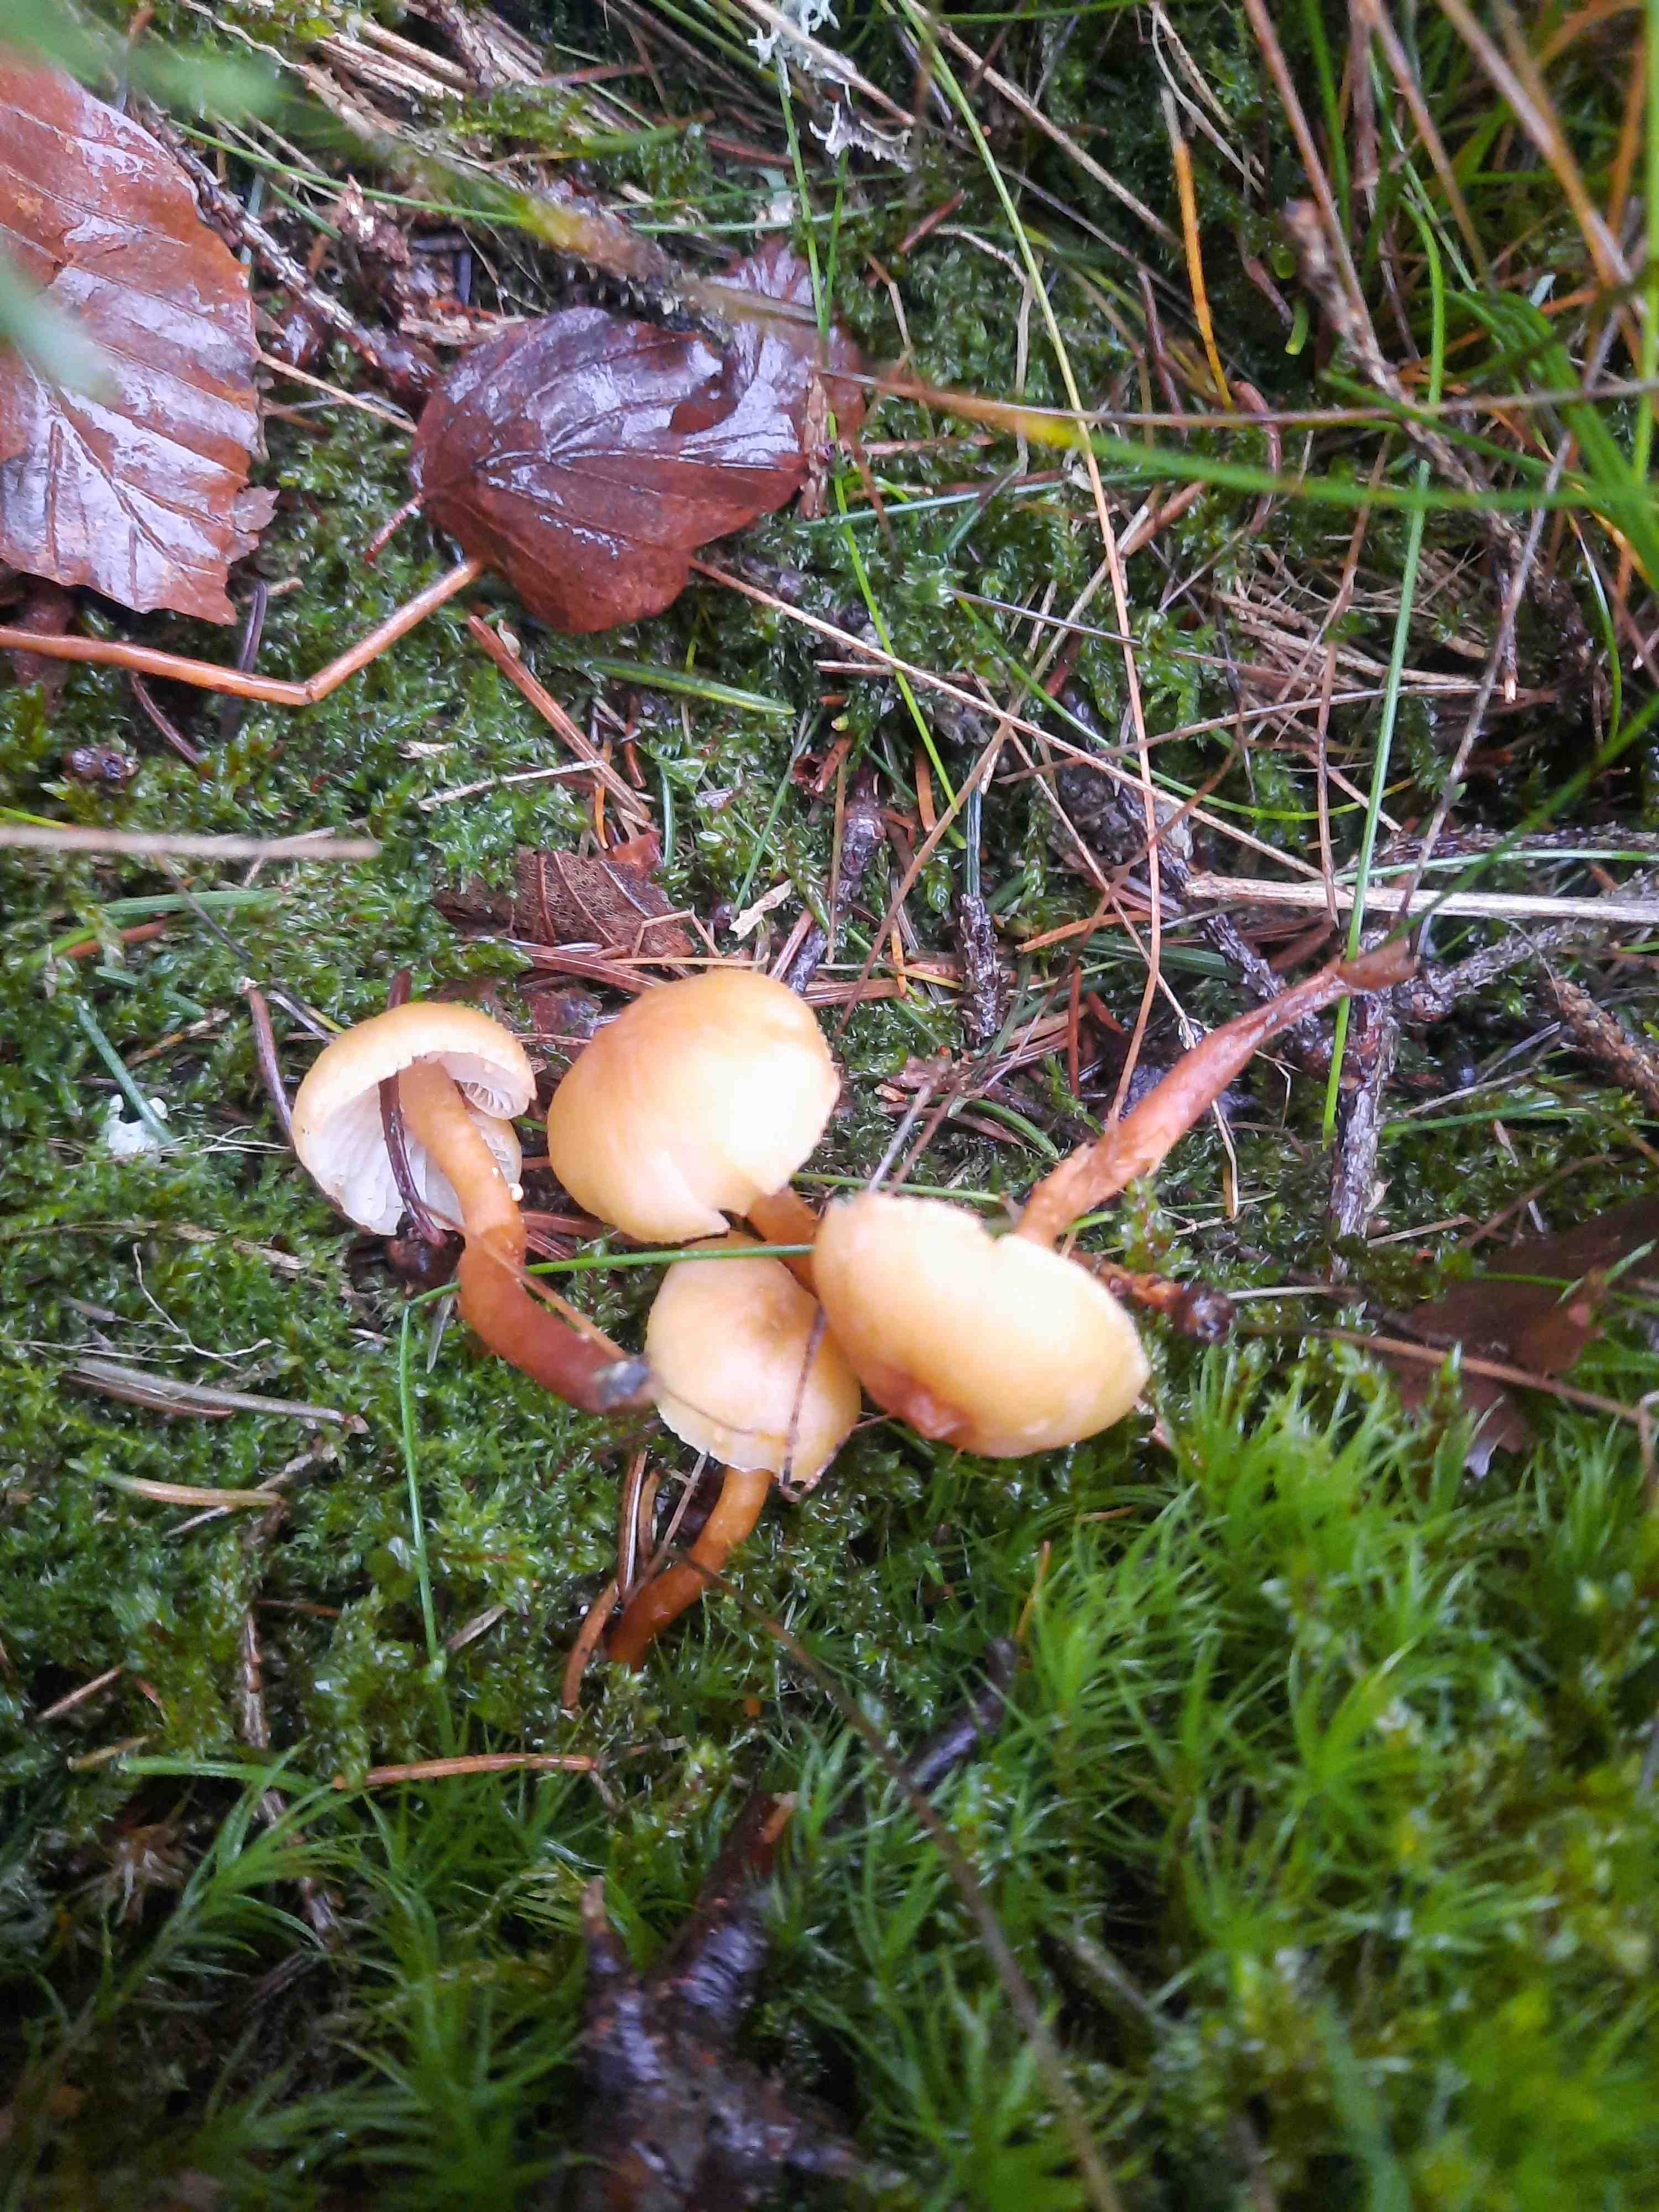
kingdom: Fungi
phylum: Basidiomycota
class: Agaricomycetes
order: Agaricales
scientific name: Agaricales
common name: champignonordenen
